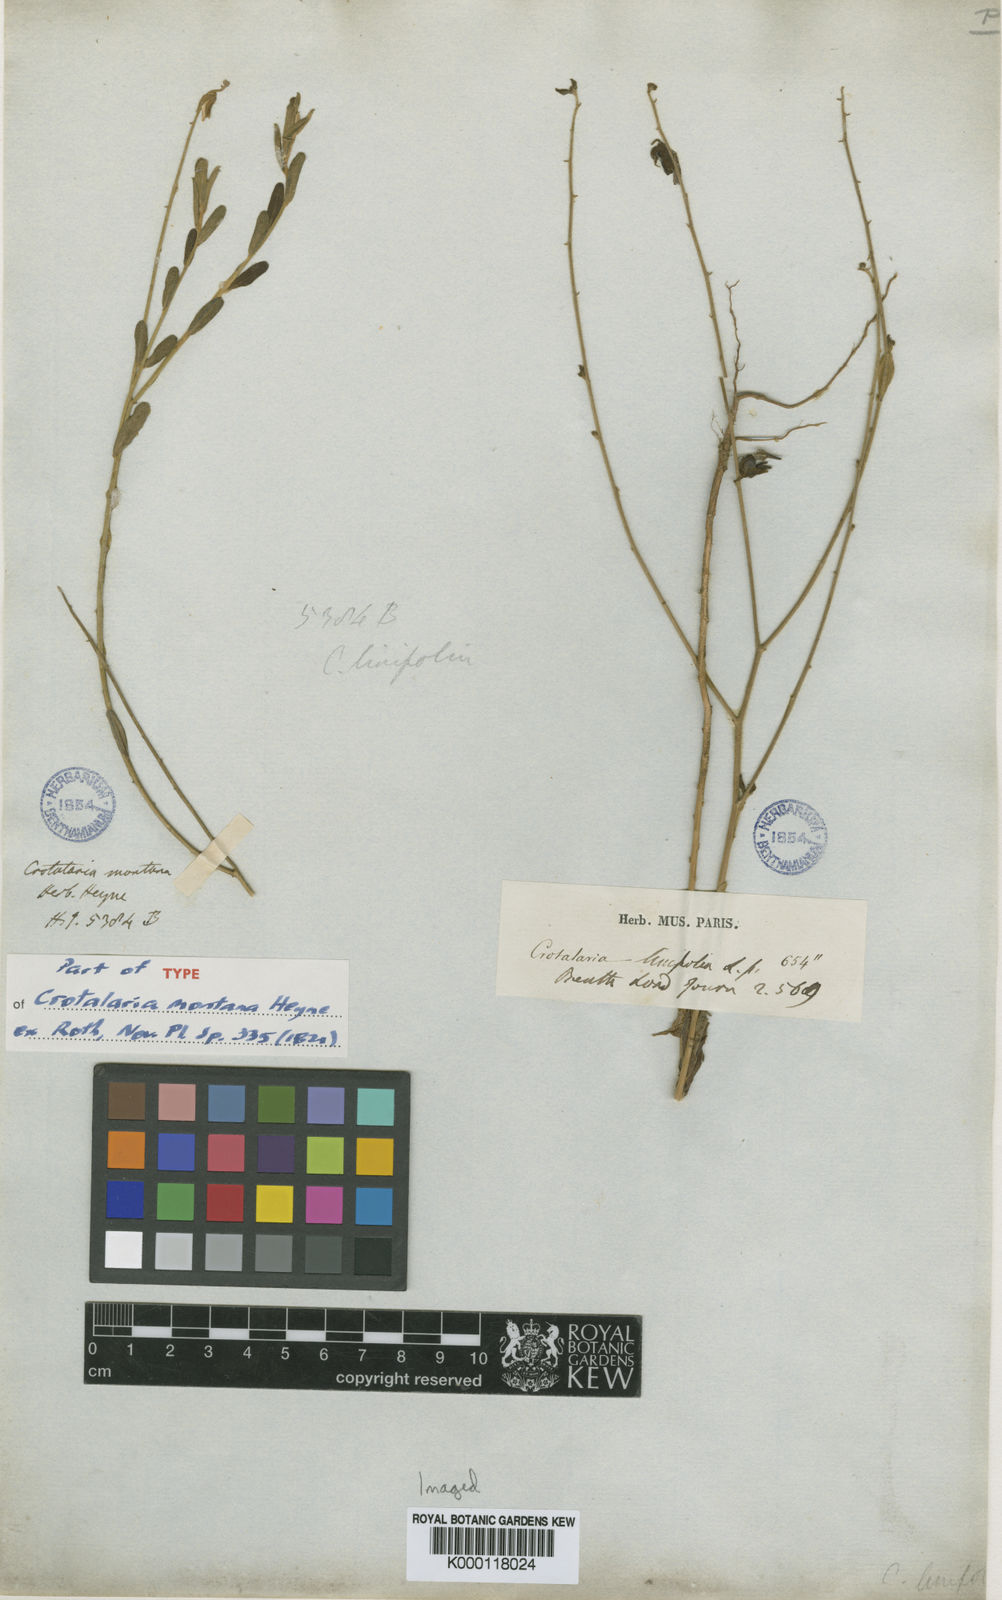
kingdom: Plantae
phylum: Tracheophyta
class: Magnoliopsida
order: Fabales
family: Fabaceae
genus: Crotalaria
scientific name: Crotalaria linifolia
